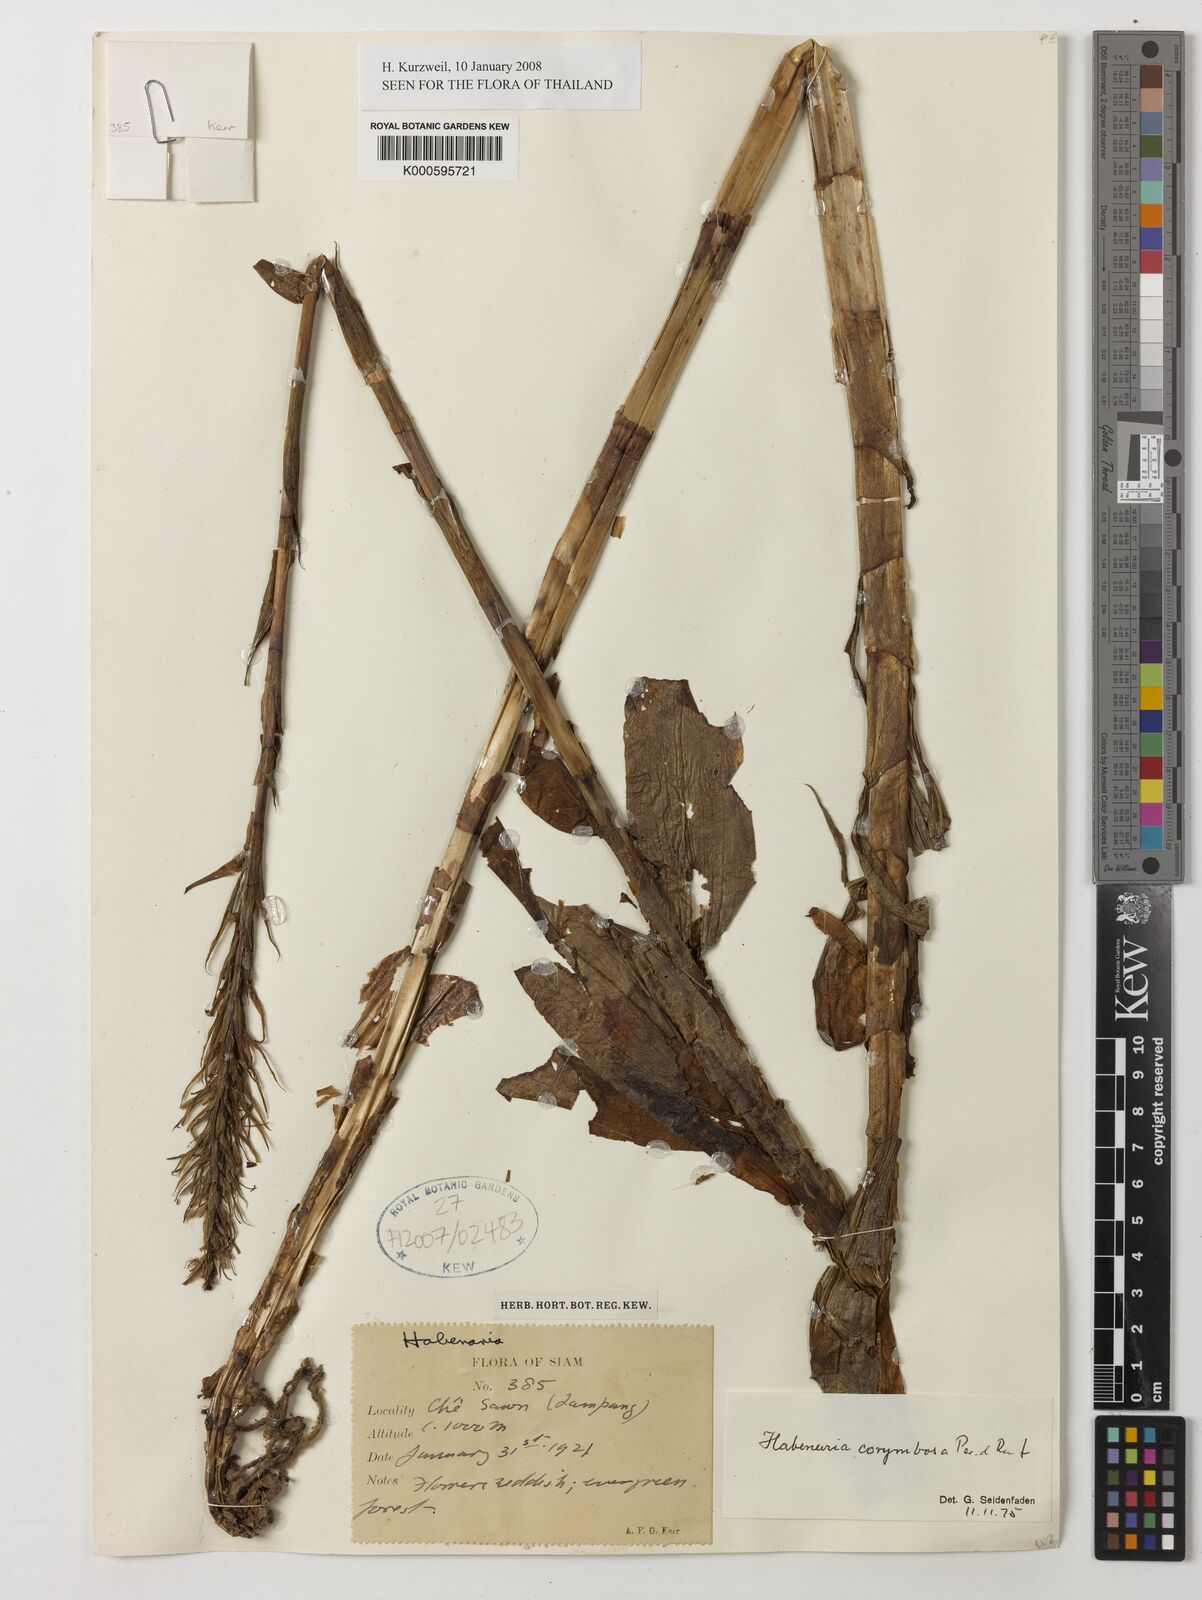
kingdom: Plantae
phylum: Tracheophyta
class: Liliopsida
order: Asparagales
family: Orchidaceae
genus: Habenaria
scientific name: Habenaria corymbosa
